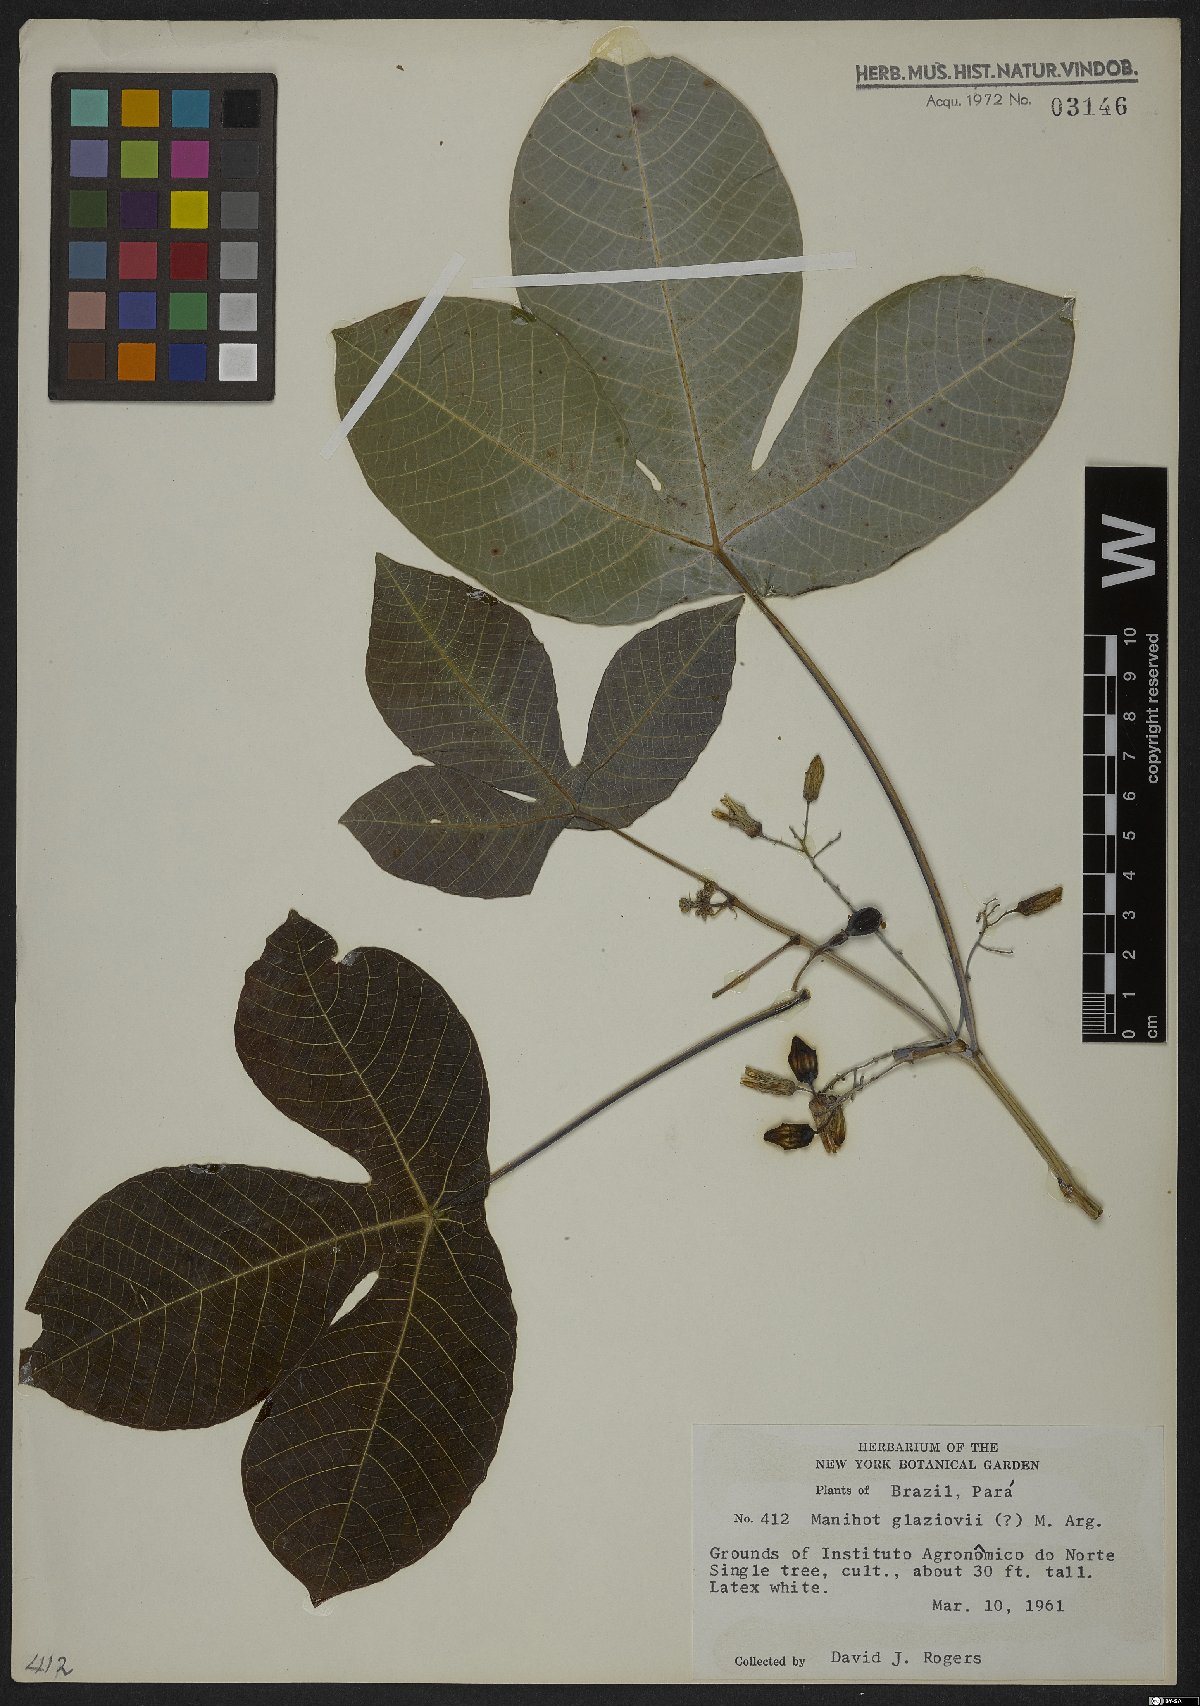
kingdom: Plantae
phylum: Tracheophyta
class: Magnoliopsida
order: Malpighiales
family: Euphorbiaceae
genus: Manihot
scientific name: Manihot carthagenensis
